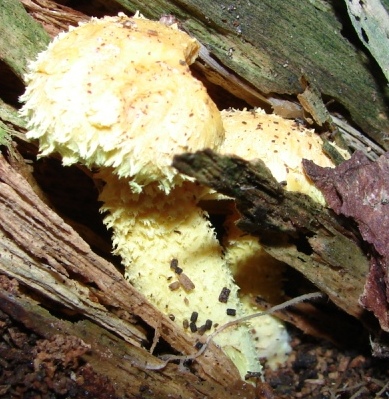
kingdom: Fungi
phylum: Basidiomycota
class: Agaricomycetes
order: Agaricales
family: Strophariaceae
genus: Pholiota
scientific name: Pholiota flammans
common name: flamme-skælhat
